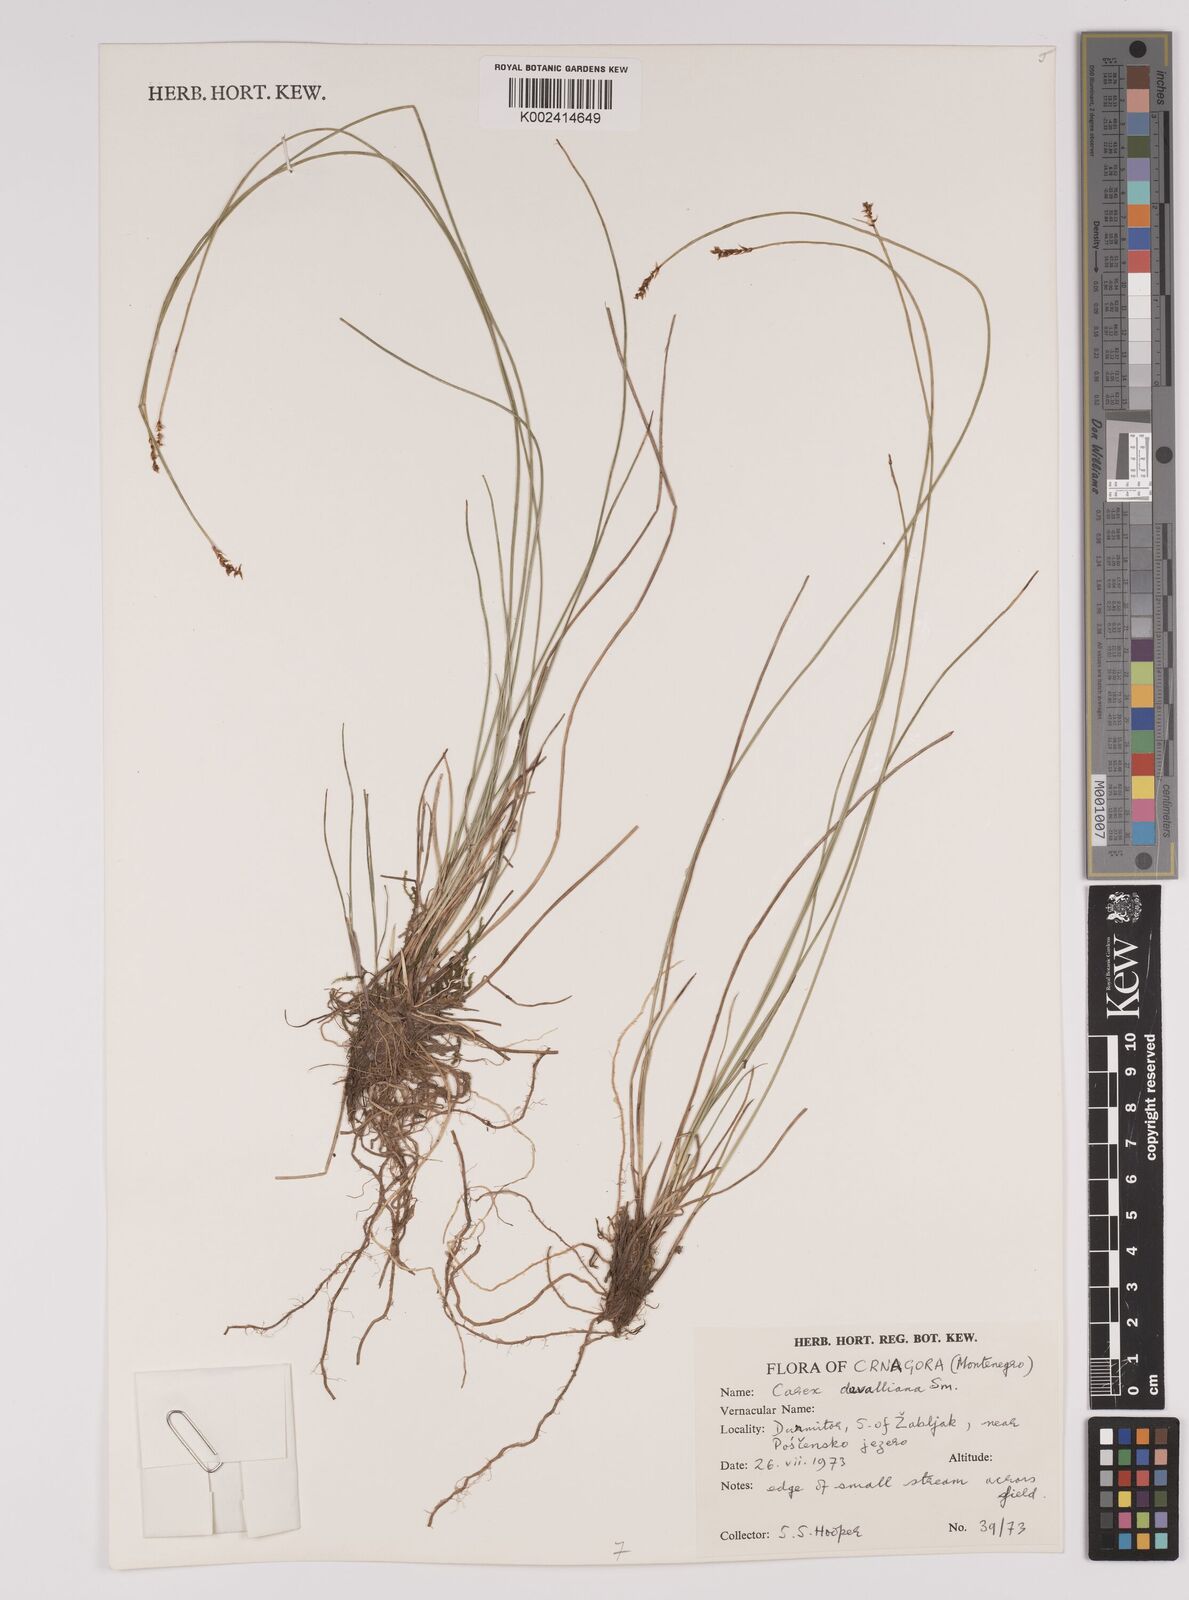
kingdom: Plantae
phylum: Tracheophyta
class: Liliopsida
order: Poales
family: Cyperaceae
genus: Carex
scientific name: Carex davalliana
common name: Davall's sedge
